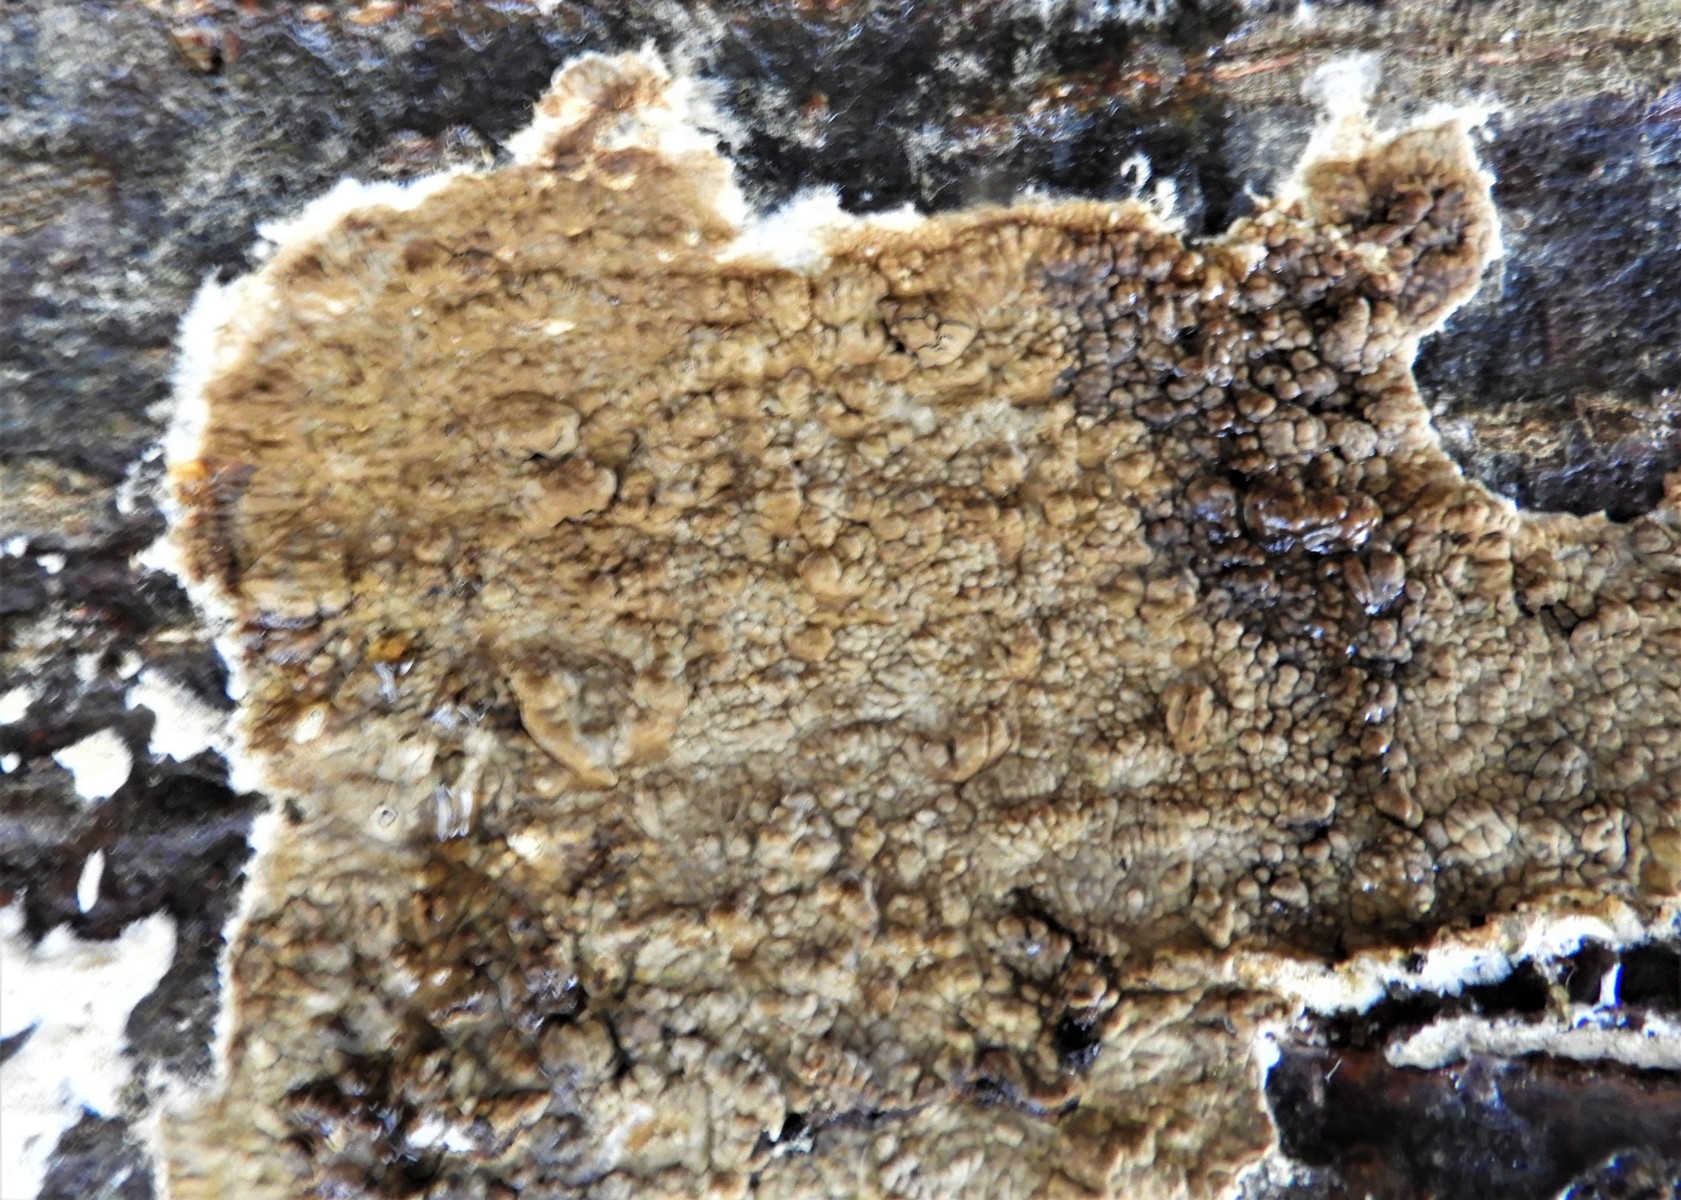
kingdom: Fungi
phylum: Basidiomycota
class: Agaricomycetes
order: Boletales
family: Coniophoraceae
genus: Coniophora
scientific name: Coniophora puteana
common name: gul tømmersvamp
